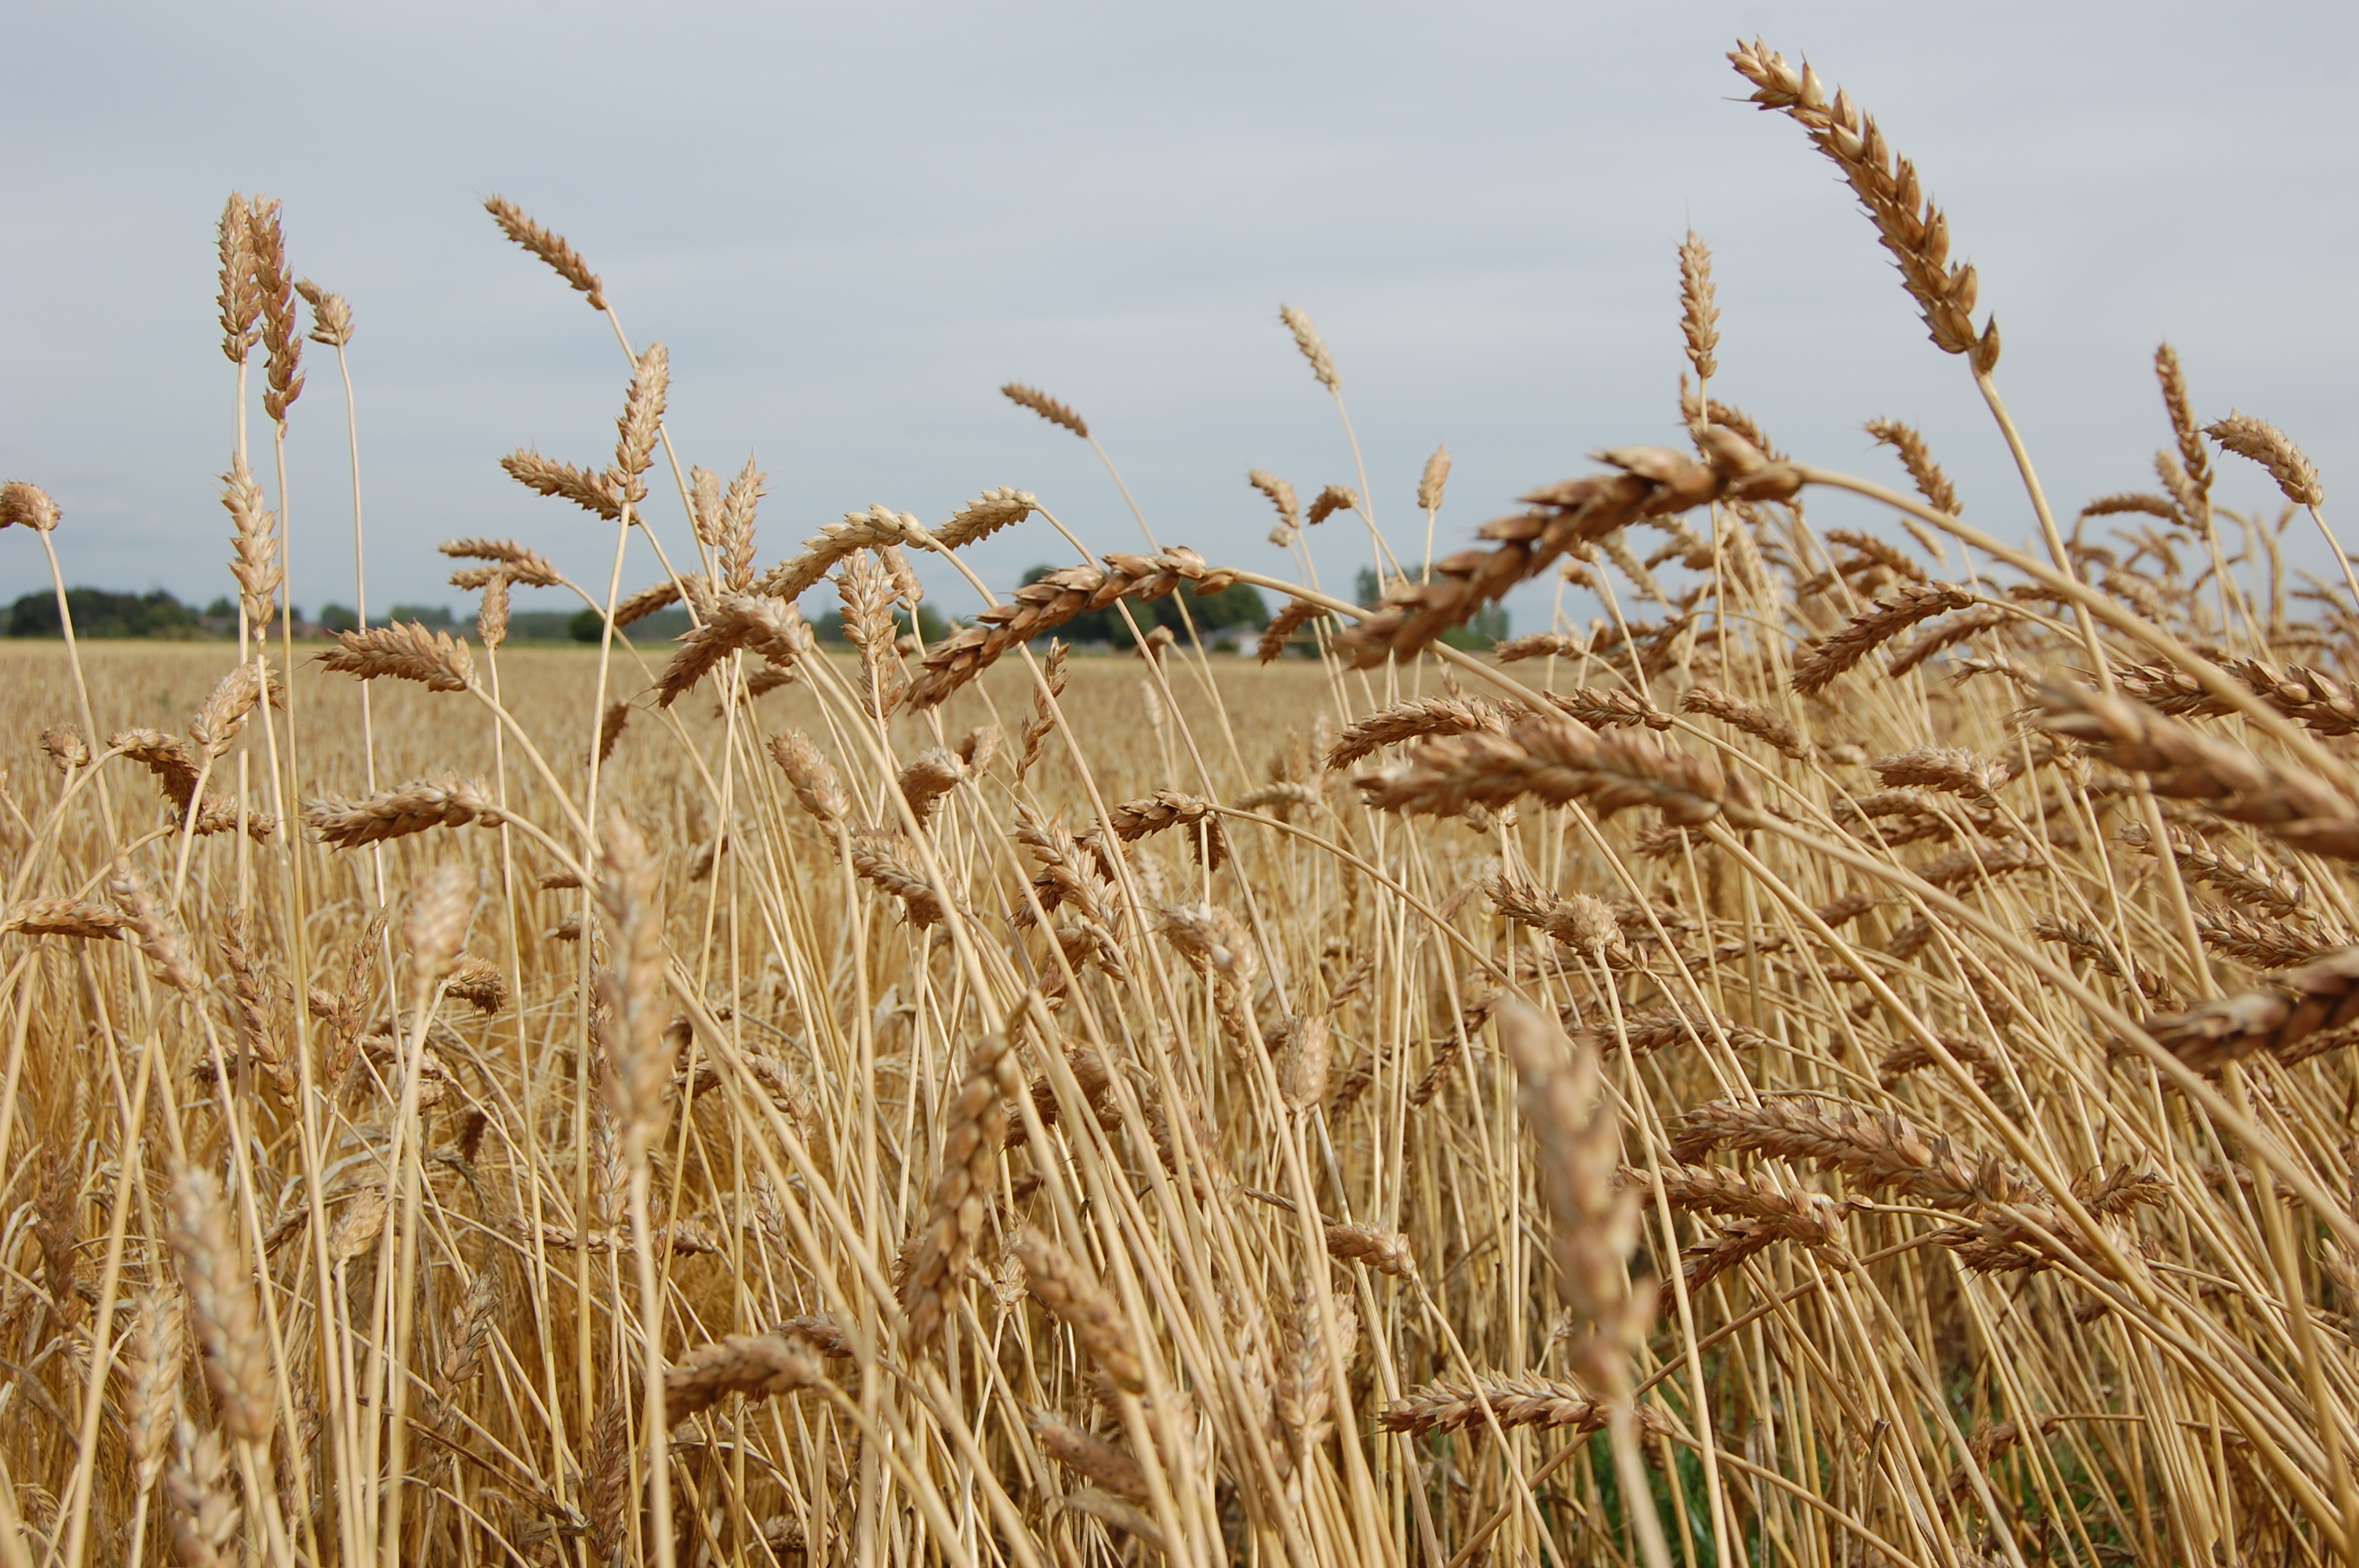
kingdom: Plantae
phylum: Tracheophyta
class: Liliopsida
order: Poales
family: Poaceae
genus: Triticum
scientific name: Triticum aestivum
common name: Common wheat
